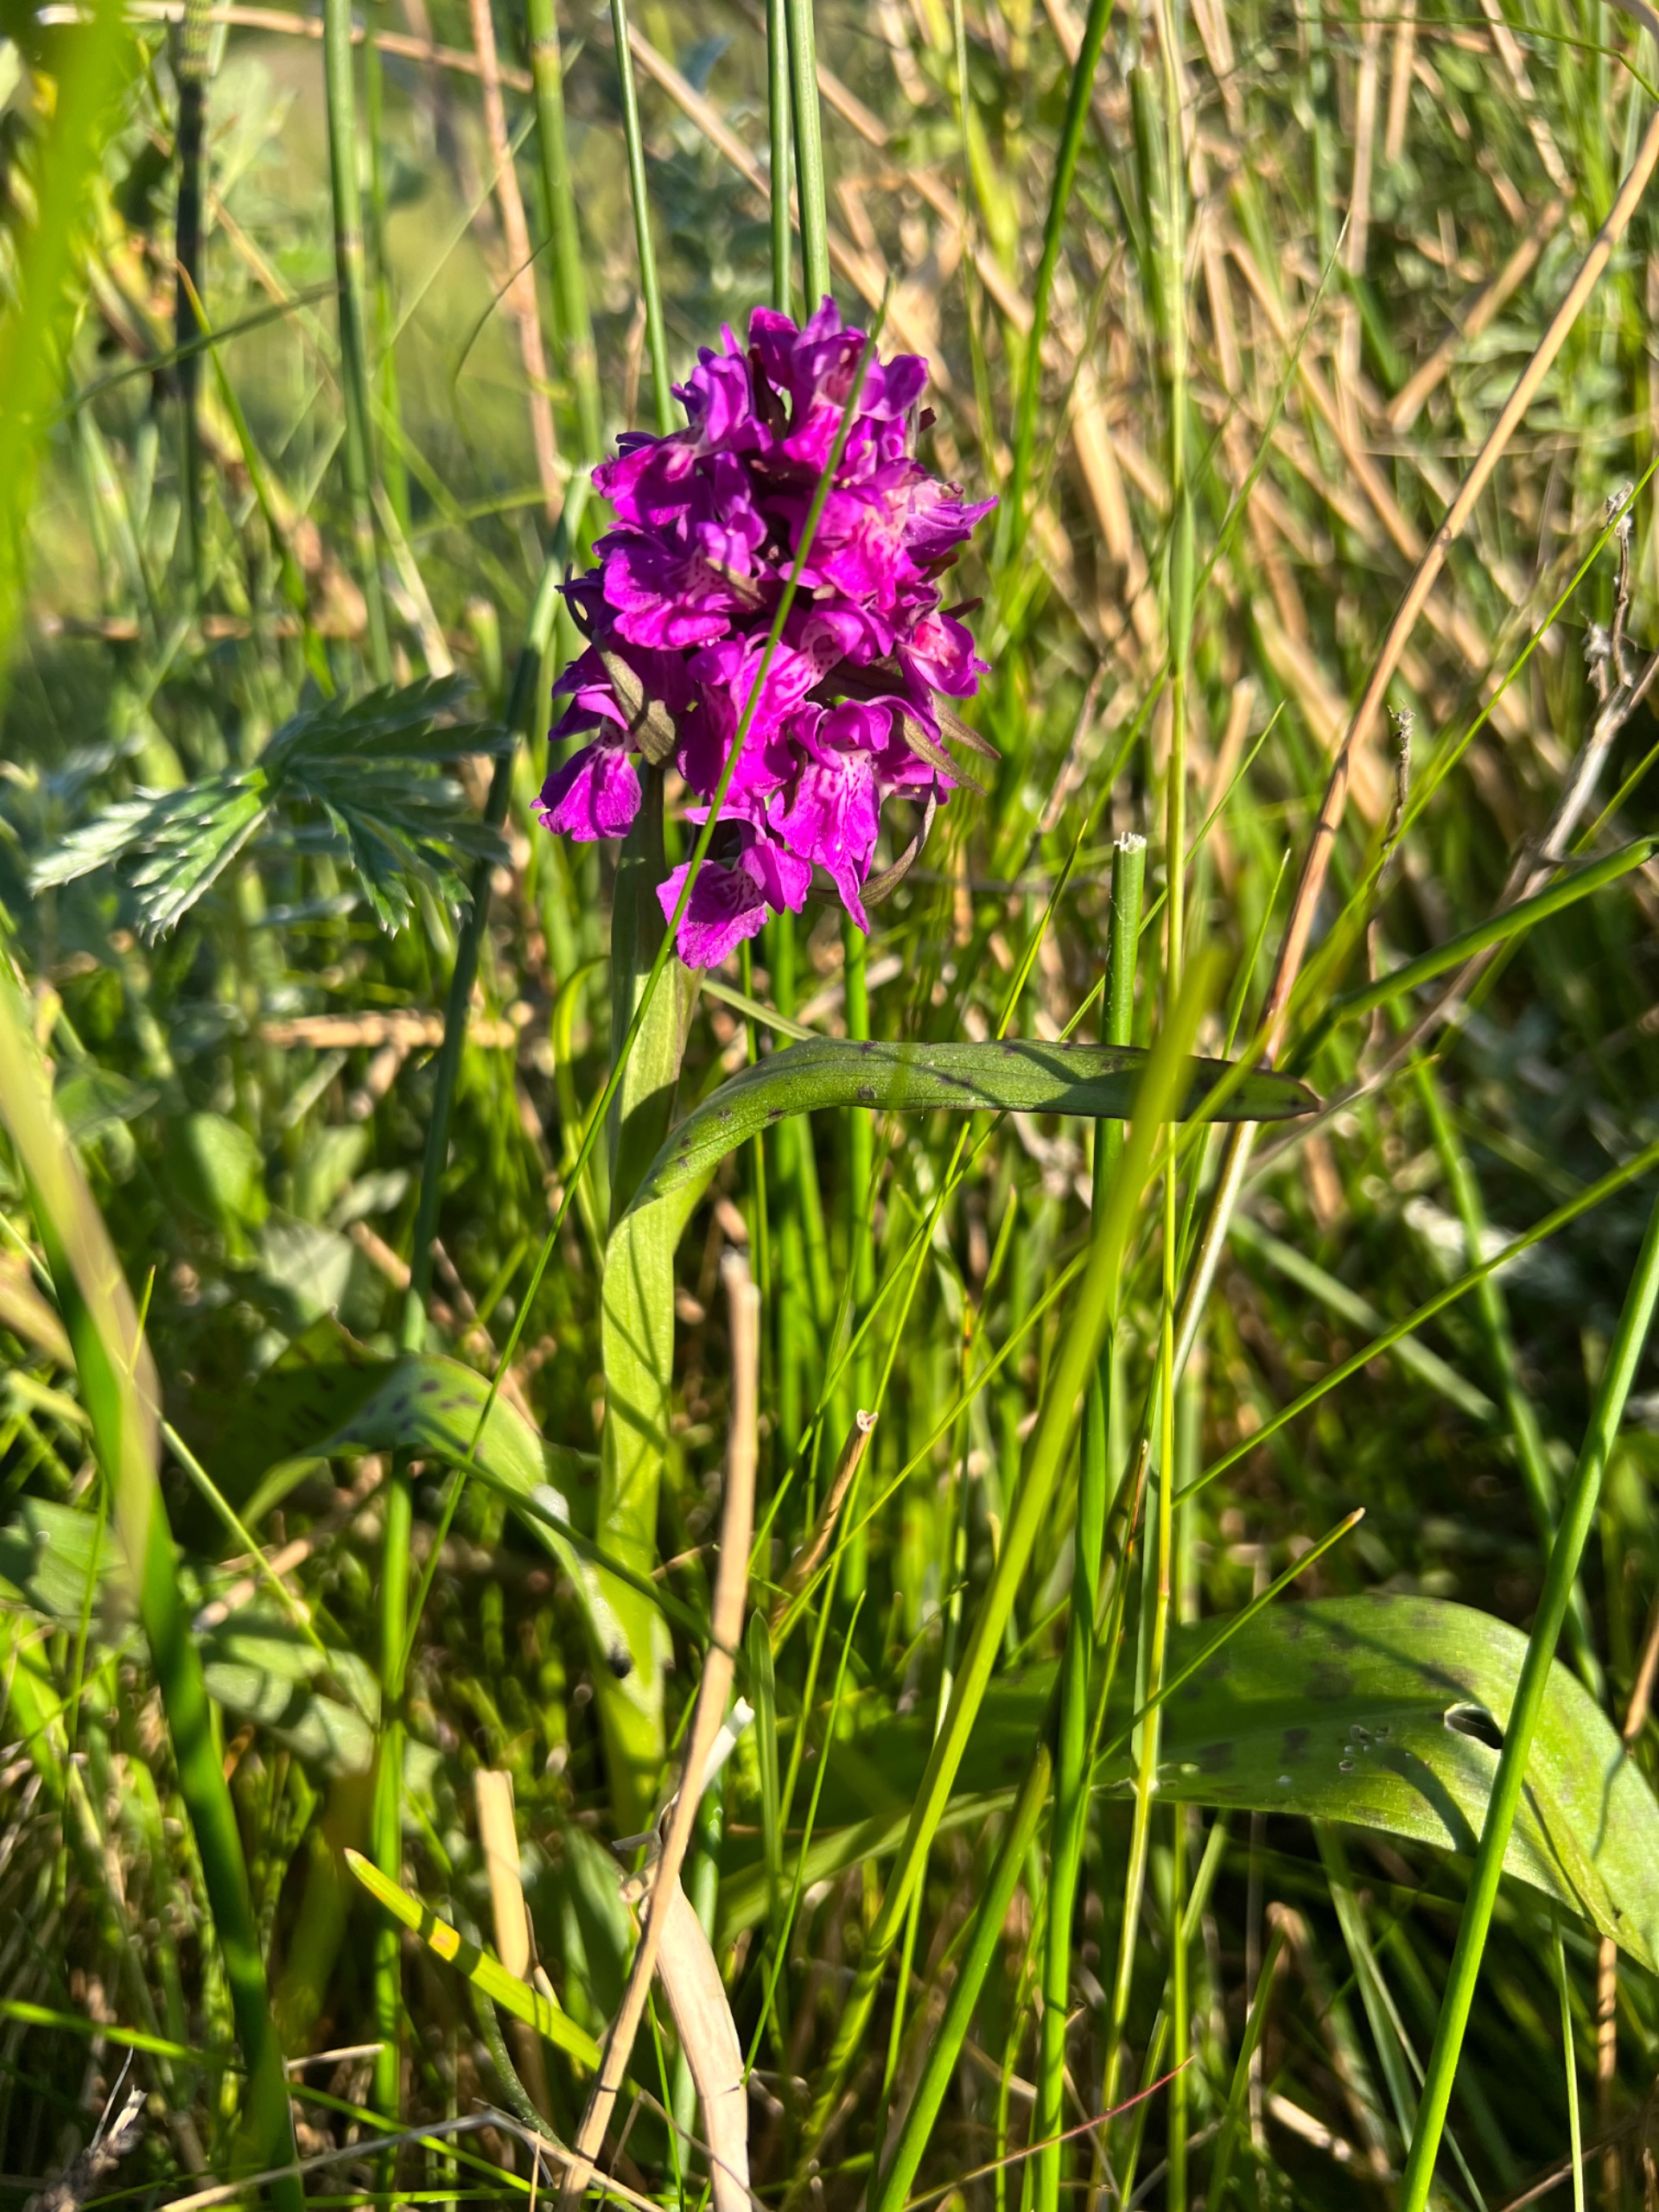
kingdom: Plantae
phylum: Tracheophyta
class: Liliopsida
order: Asparagales
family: Orchidaceae
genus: Dactylorhiza
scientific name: Dactylorhiza majalis
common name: Maj-gøgeurt
